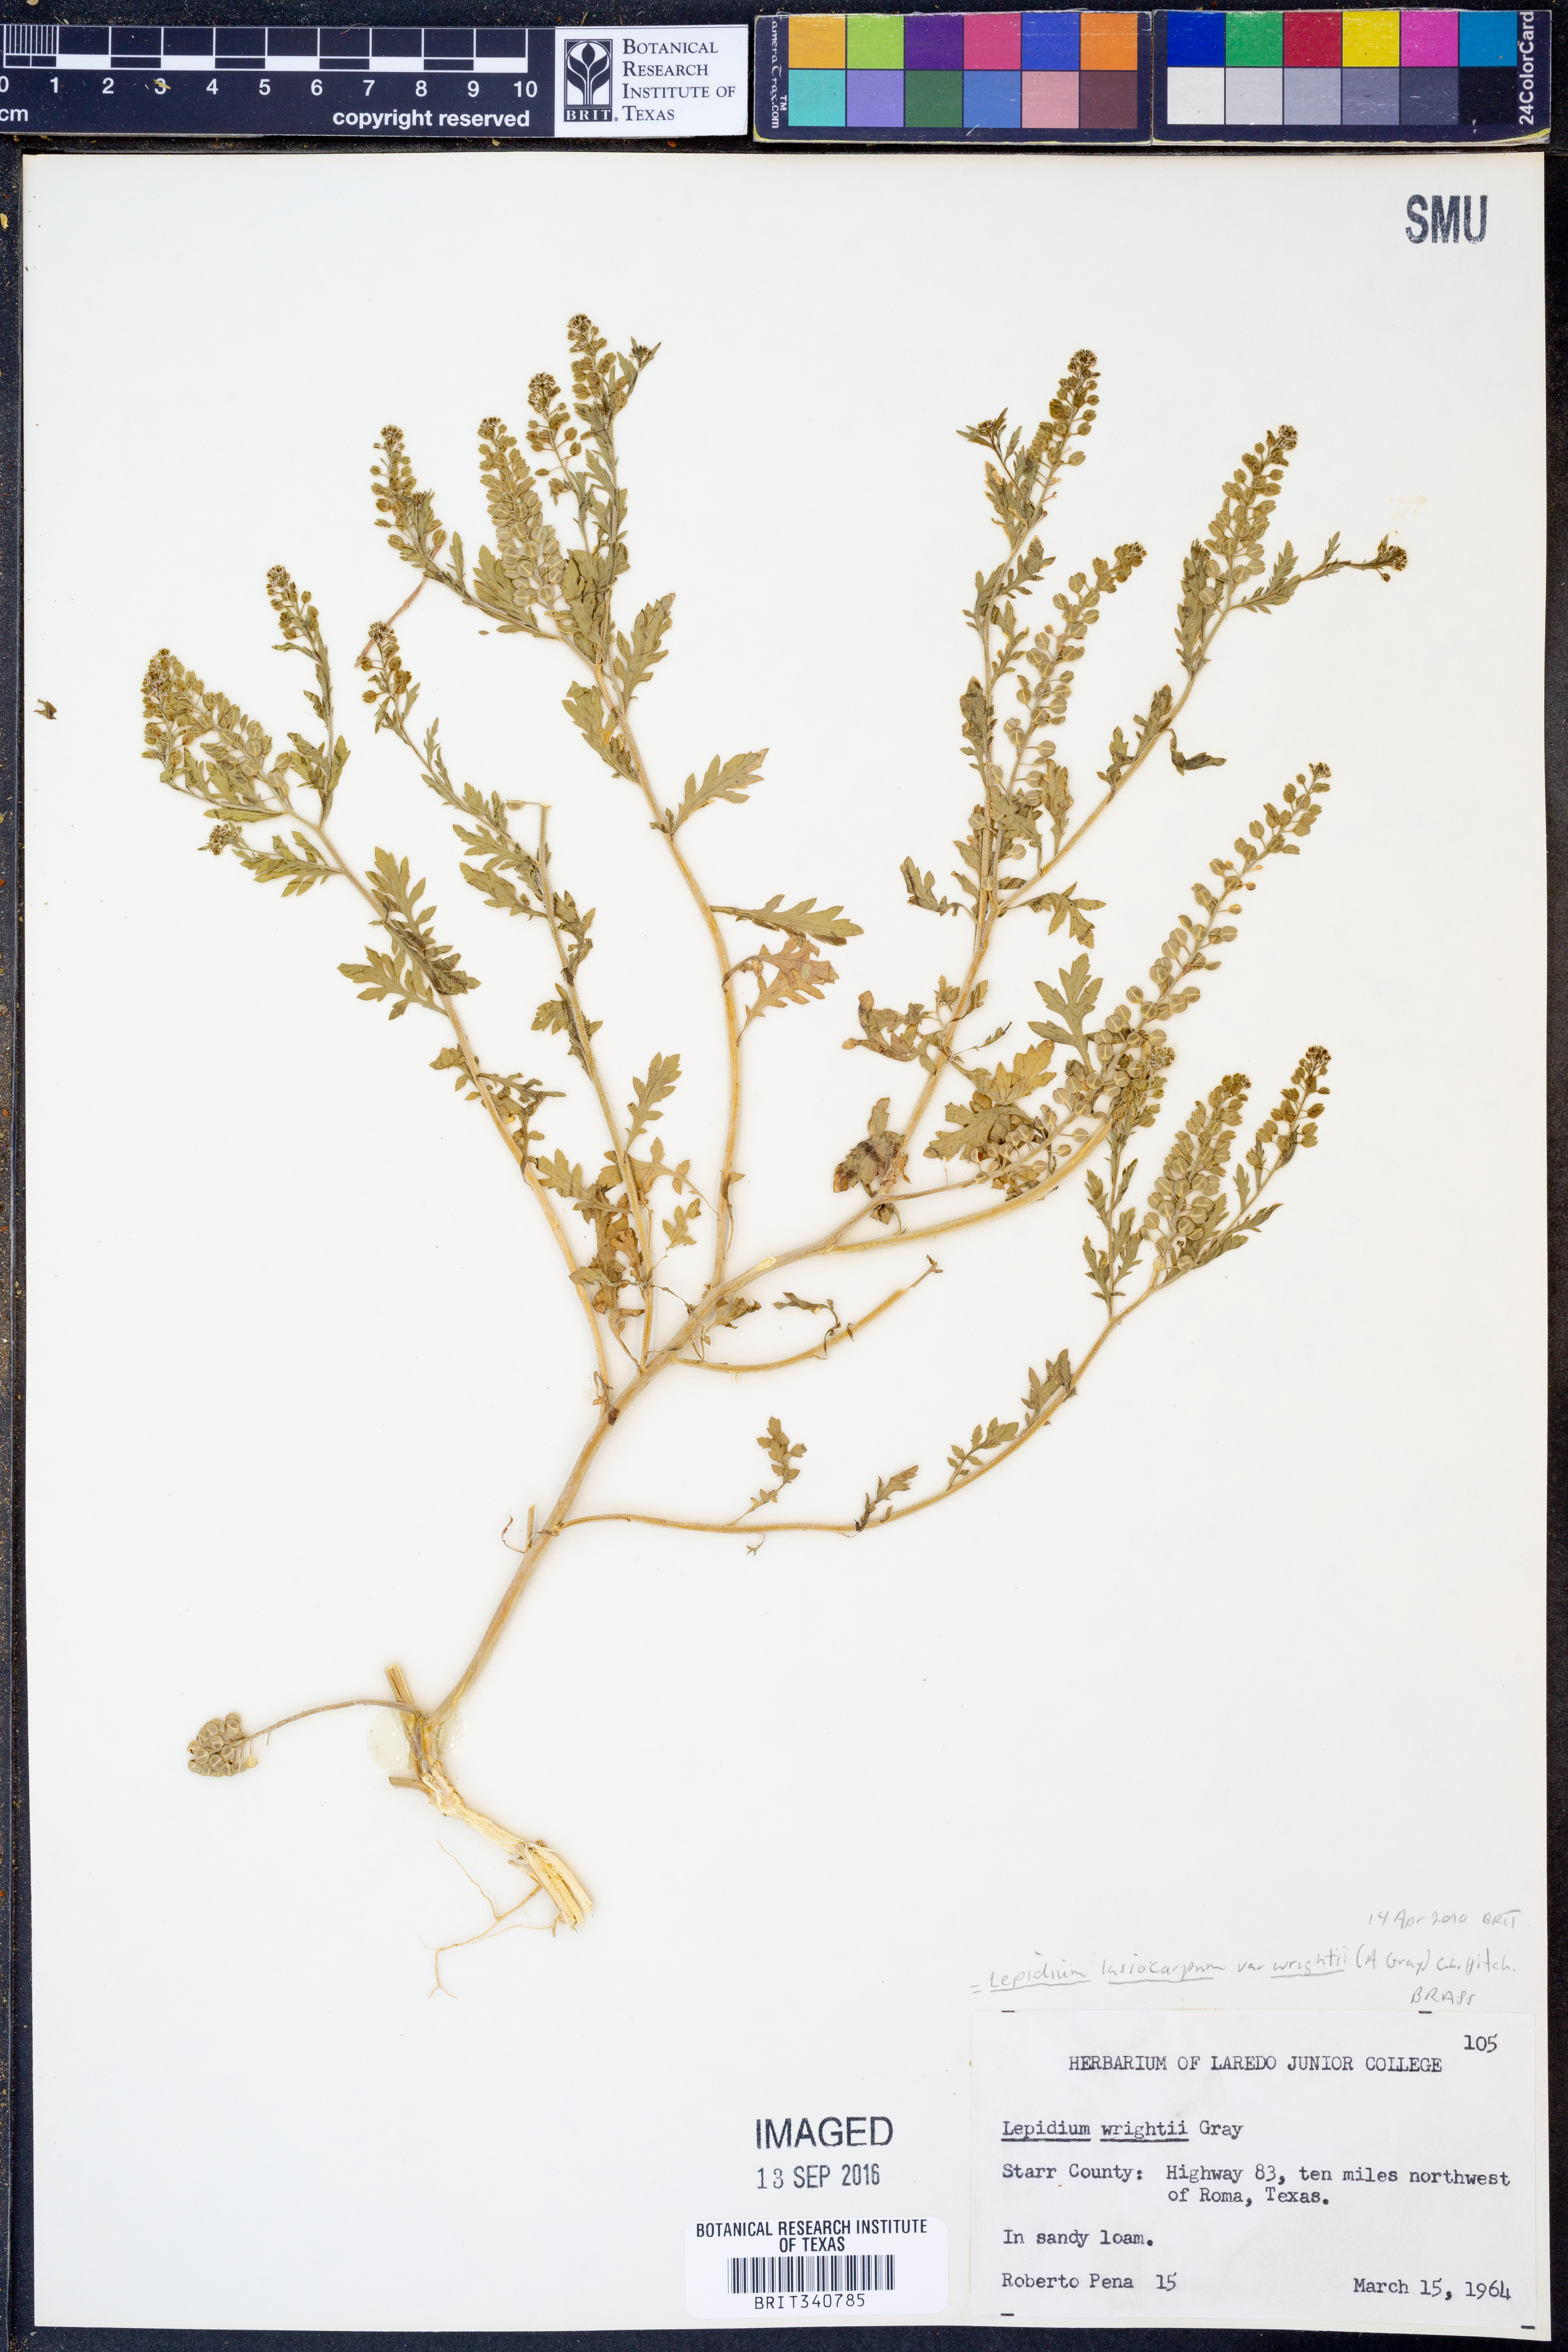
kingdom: Plantae
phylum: Tracheophyta
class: Magnoliopsida
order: Brassicales
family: Brassicaceae
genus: Lepidium
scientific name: Lepidium lasiocarpum
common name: Hairy-pod pepperwort
